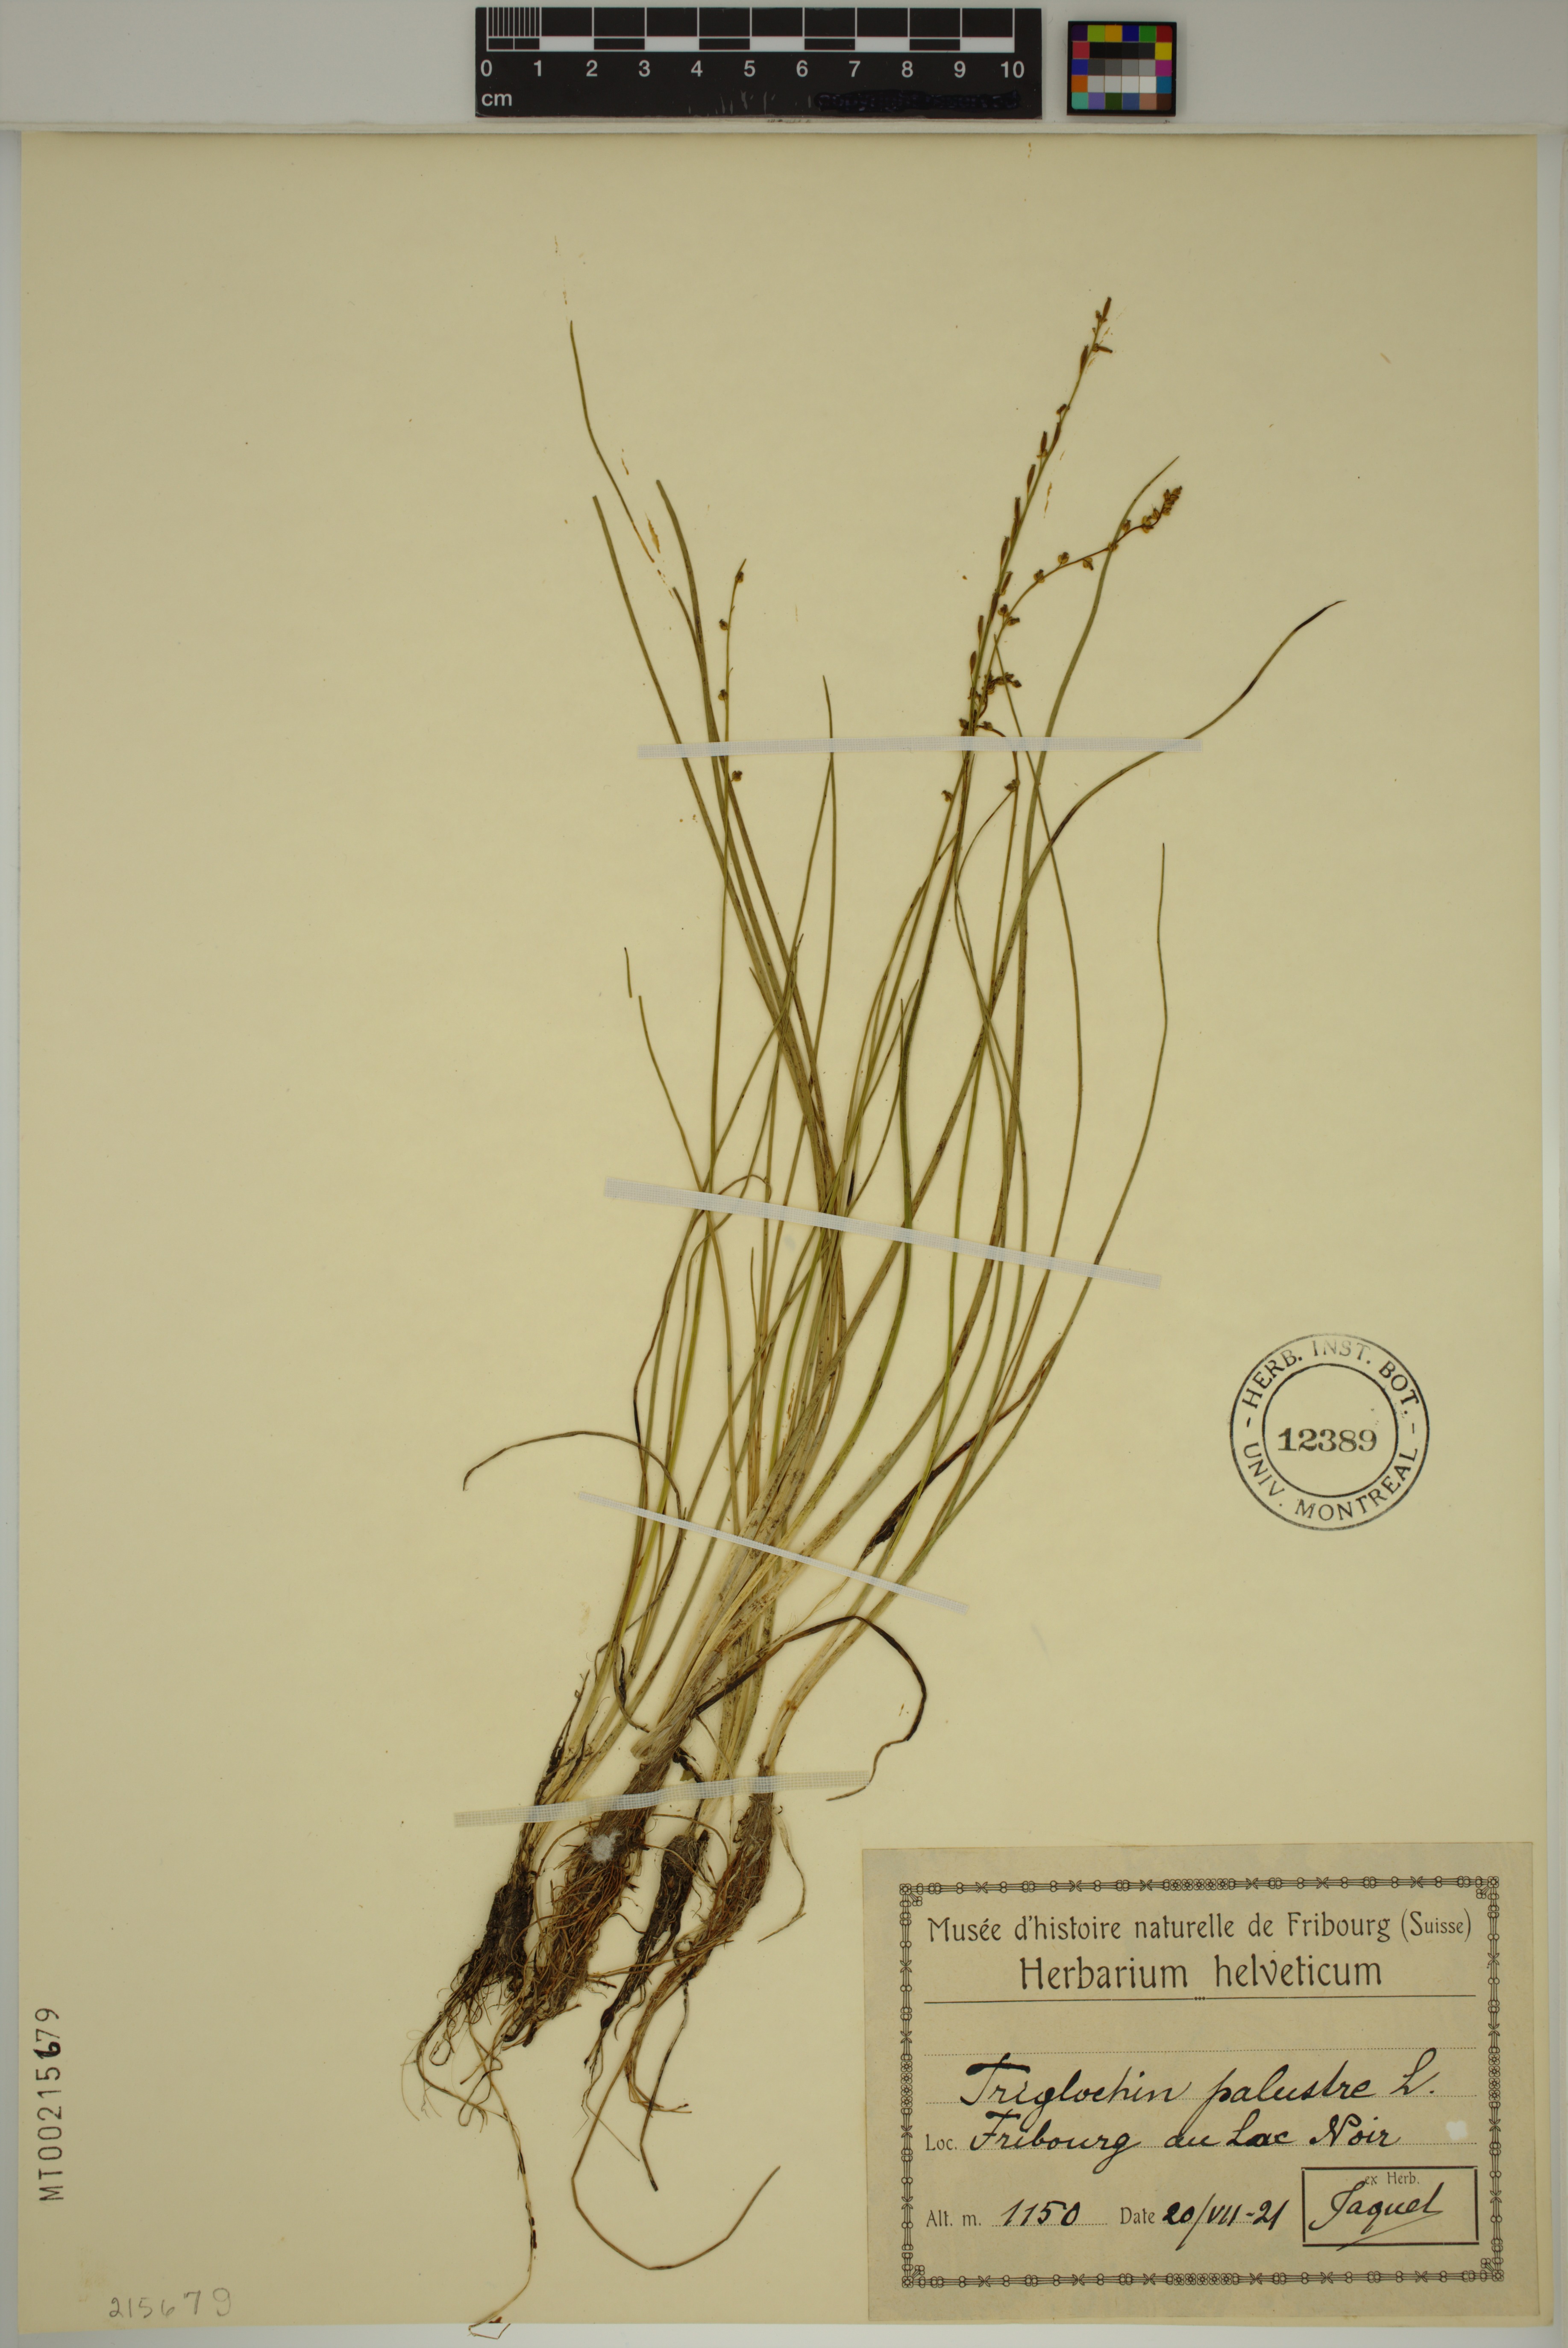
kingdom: Plantae
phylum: Tracheophyta
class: Liliopsida
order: Alismatales
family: Juncaginaceae
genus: Triglochin
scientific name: Triglochin palustris
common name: Marsh arrowgrass
